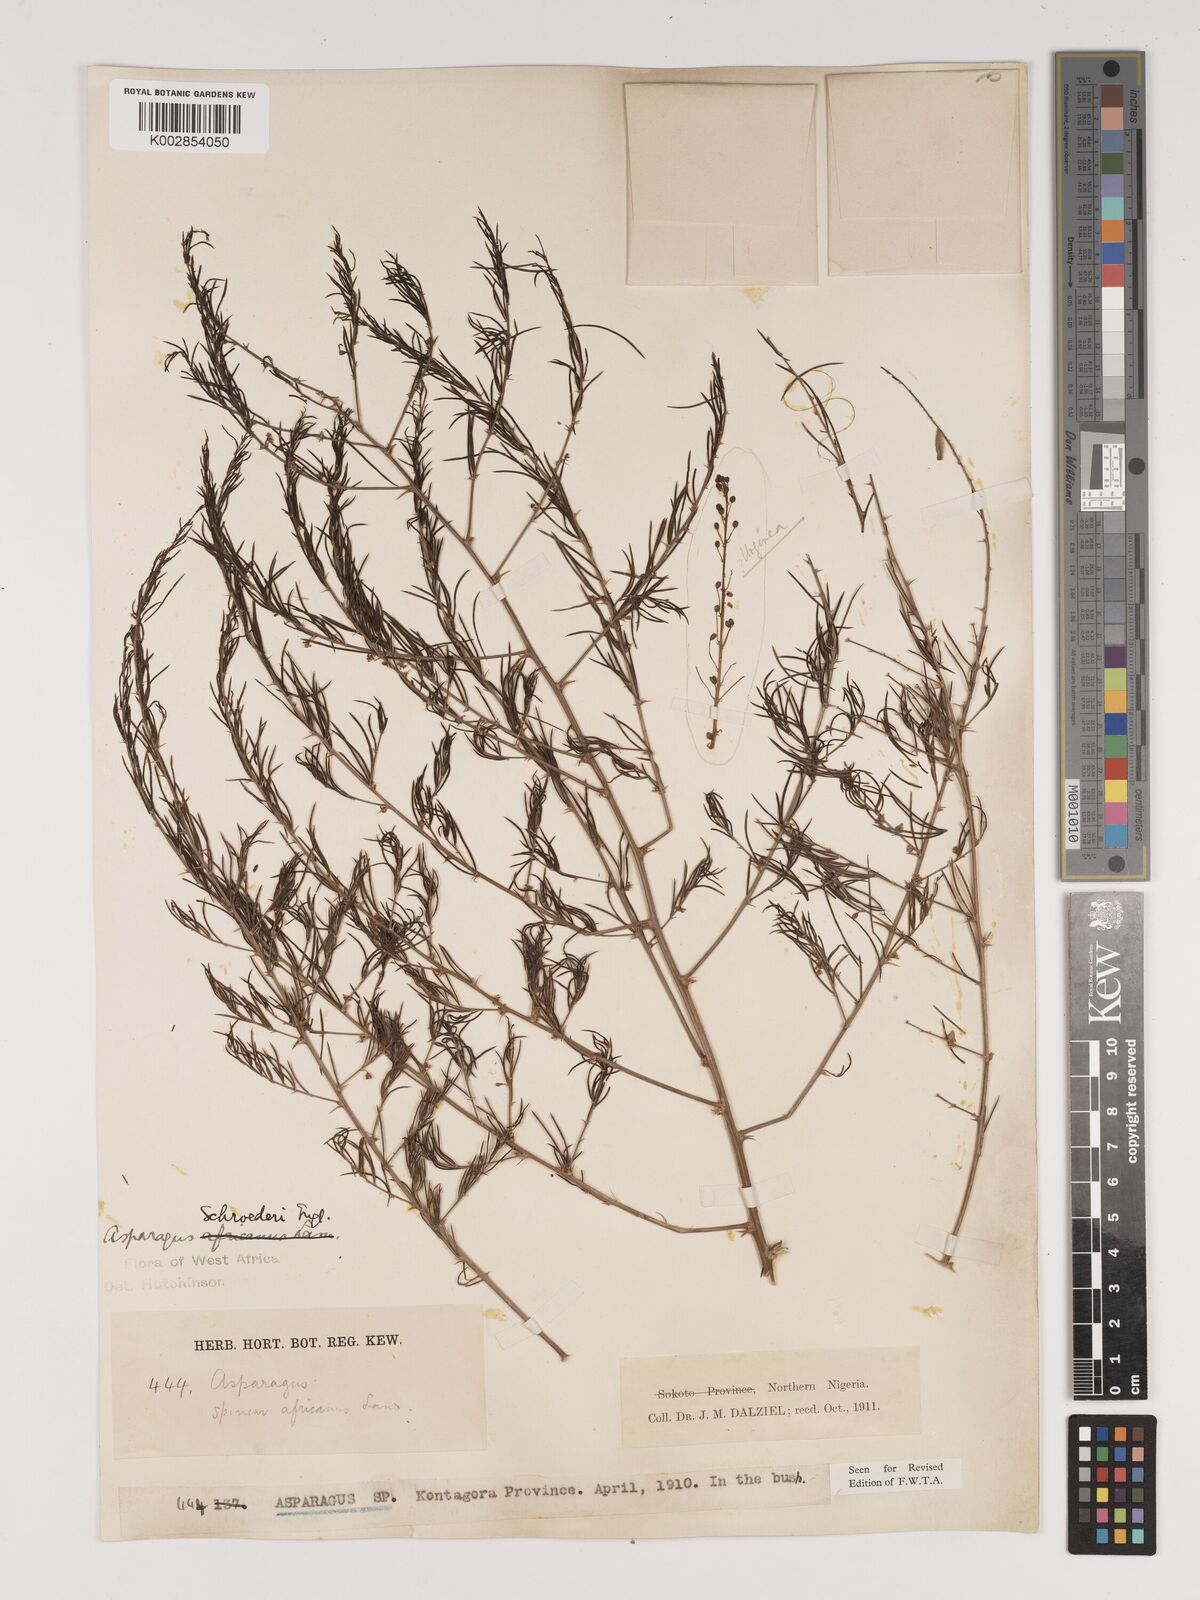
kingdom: Plantae
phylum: Tracheophyta
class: Liliopsida
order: Asparagales
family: Asparagaceae
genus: Asparagus
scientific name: Asparagus schroederi
